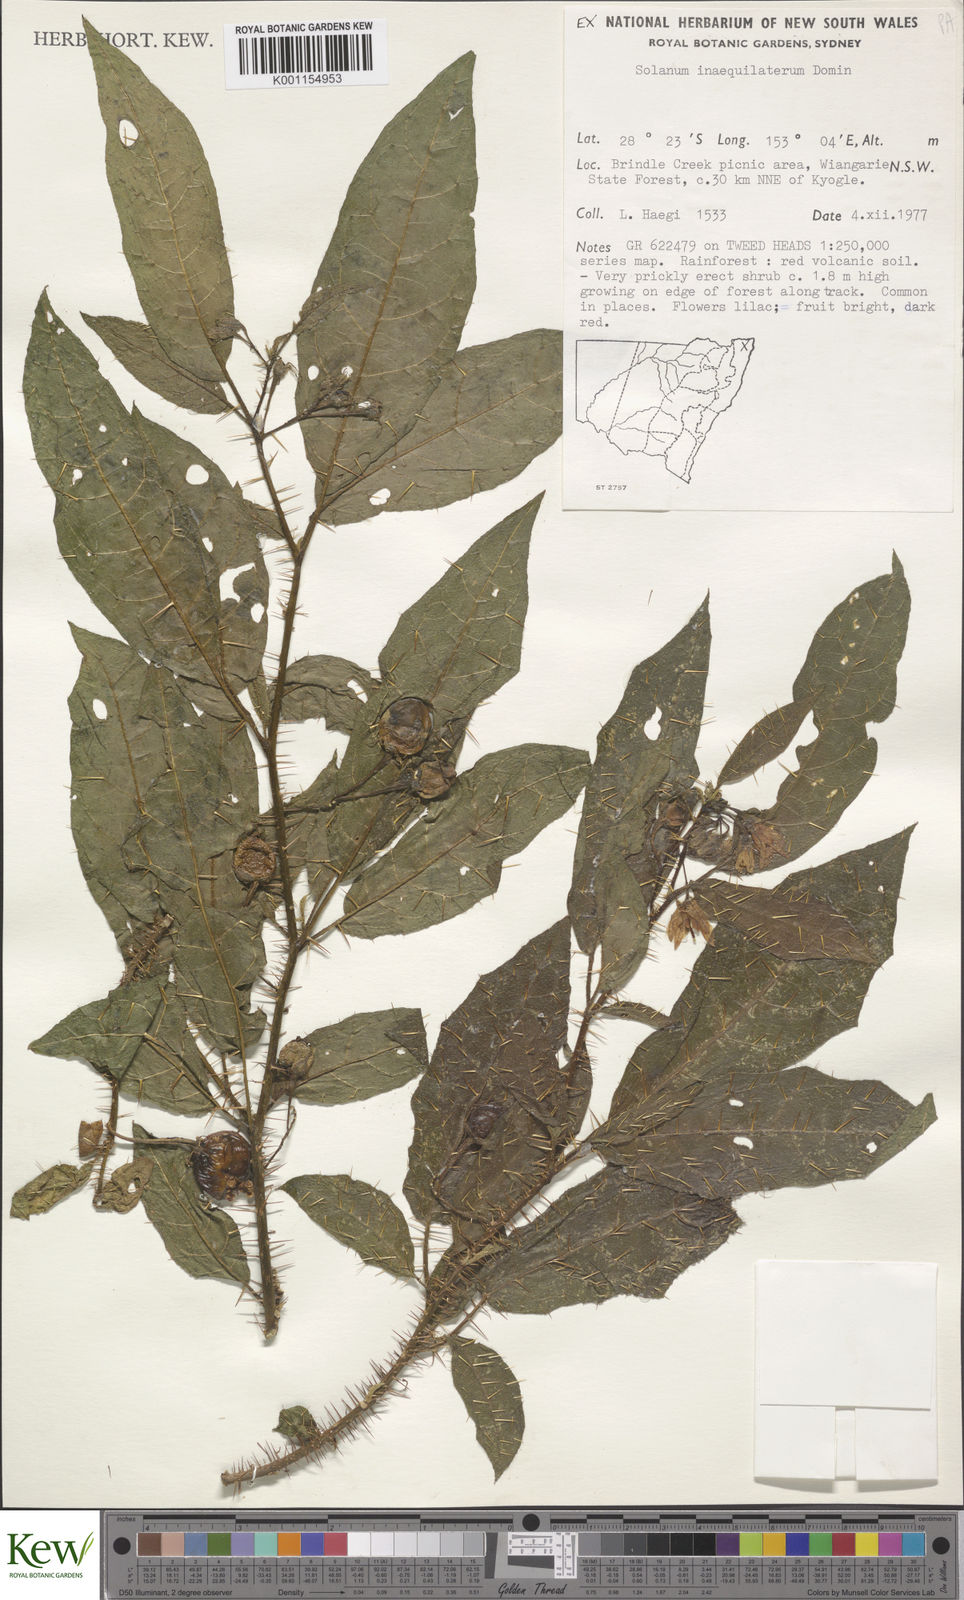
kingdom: Plantae
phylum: Tracheophyta
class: Magnoliopsida
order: Solanales
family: Solanaceae
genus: Solanum
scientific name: Solanum inaequilaterum
